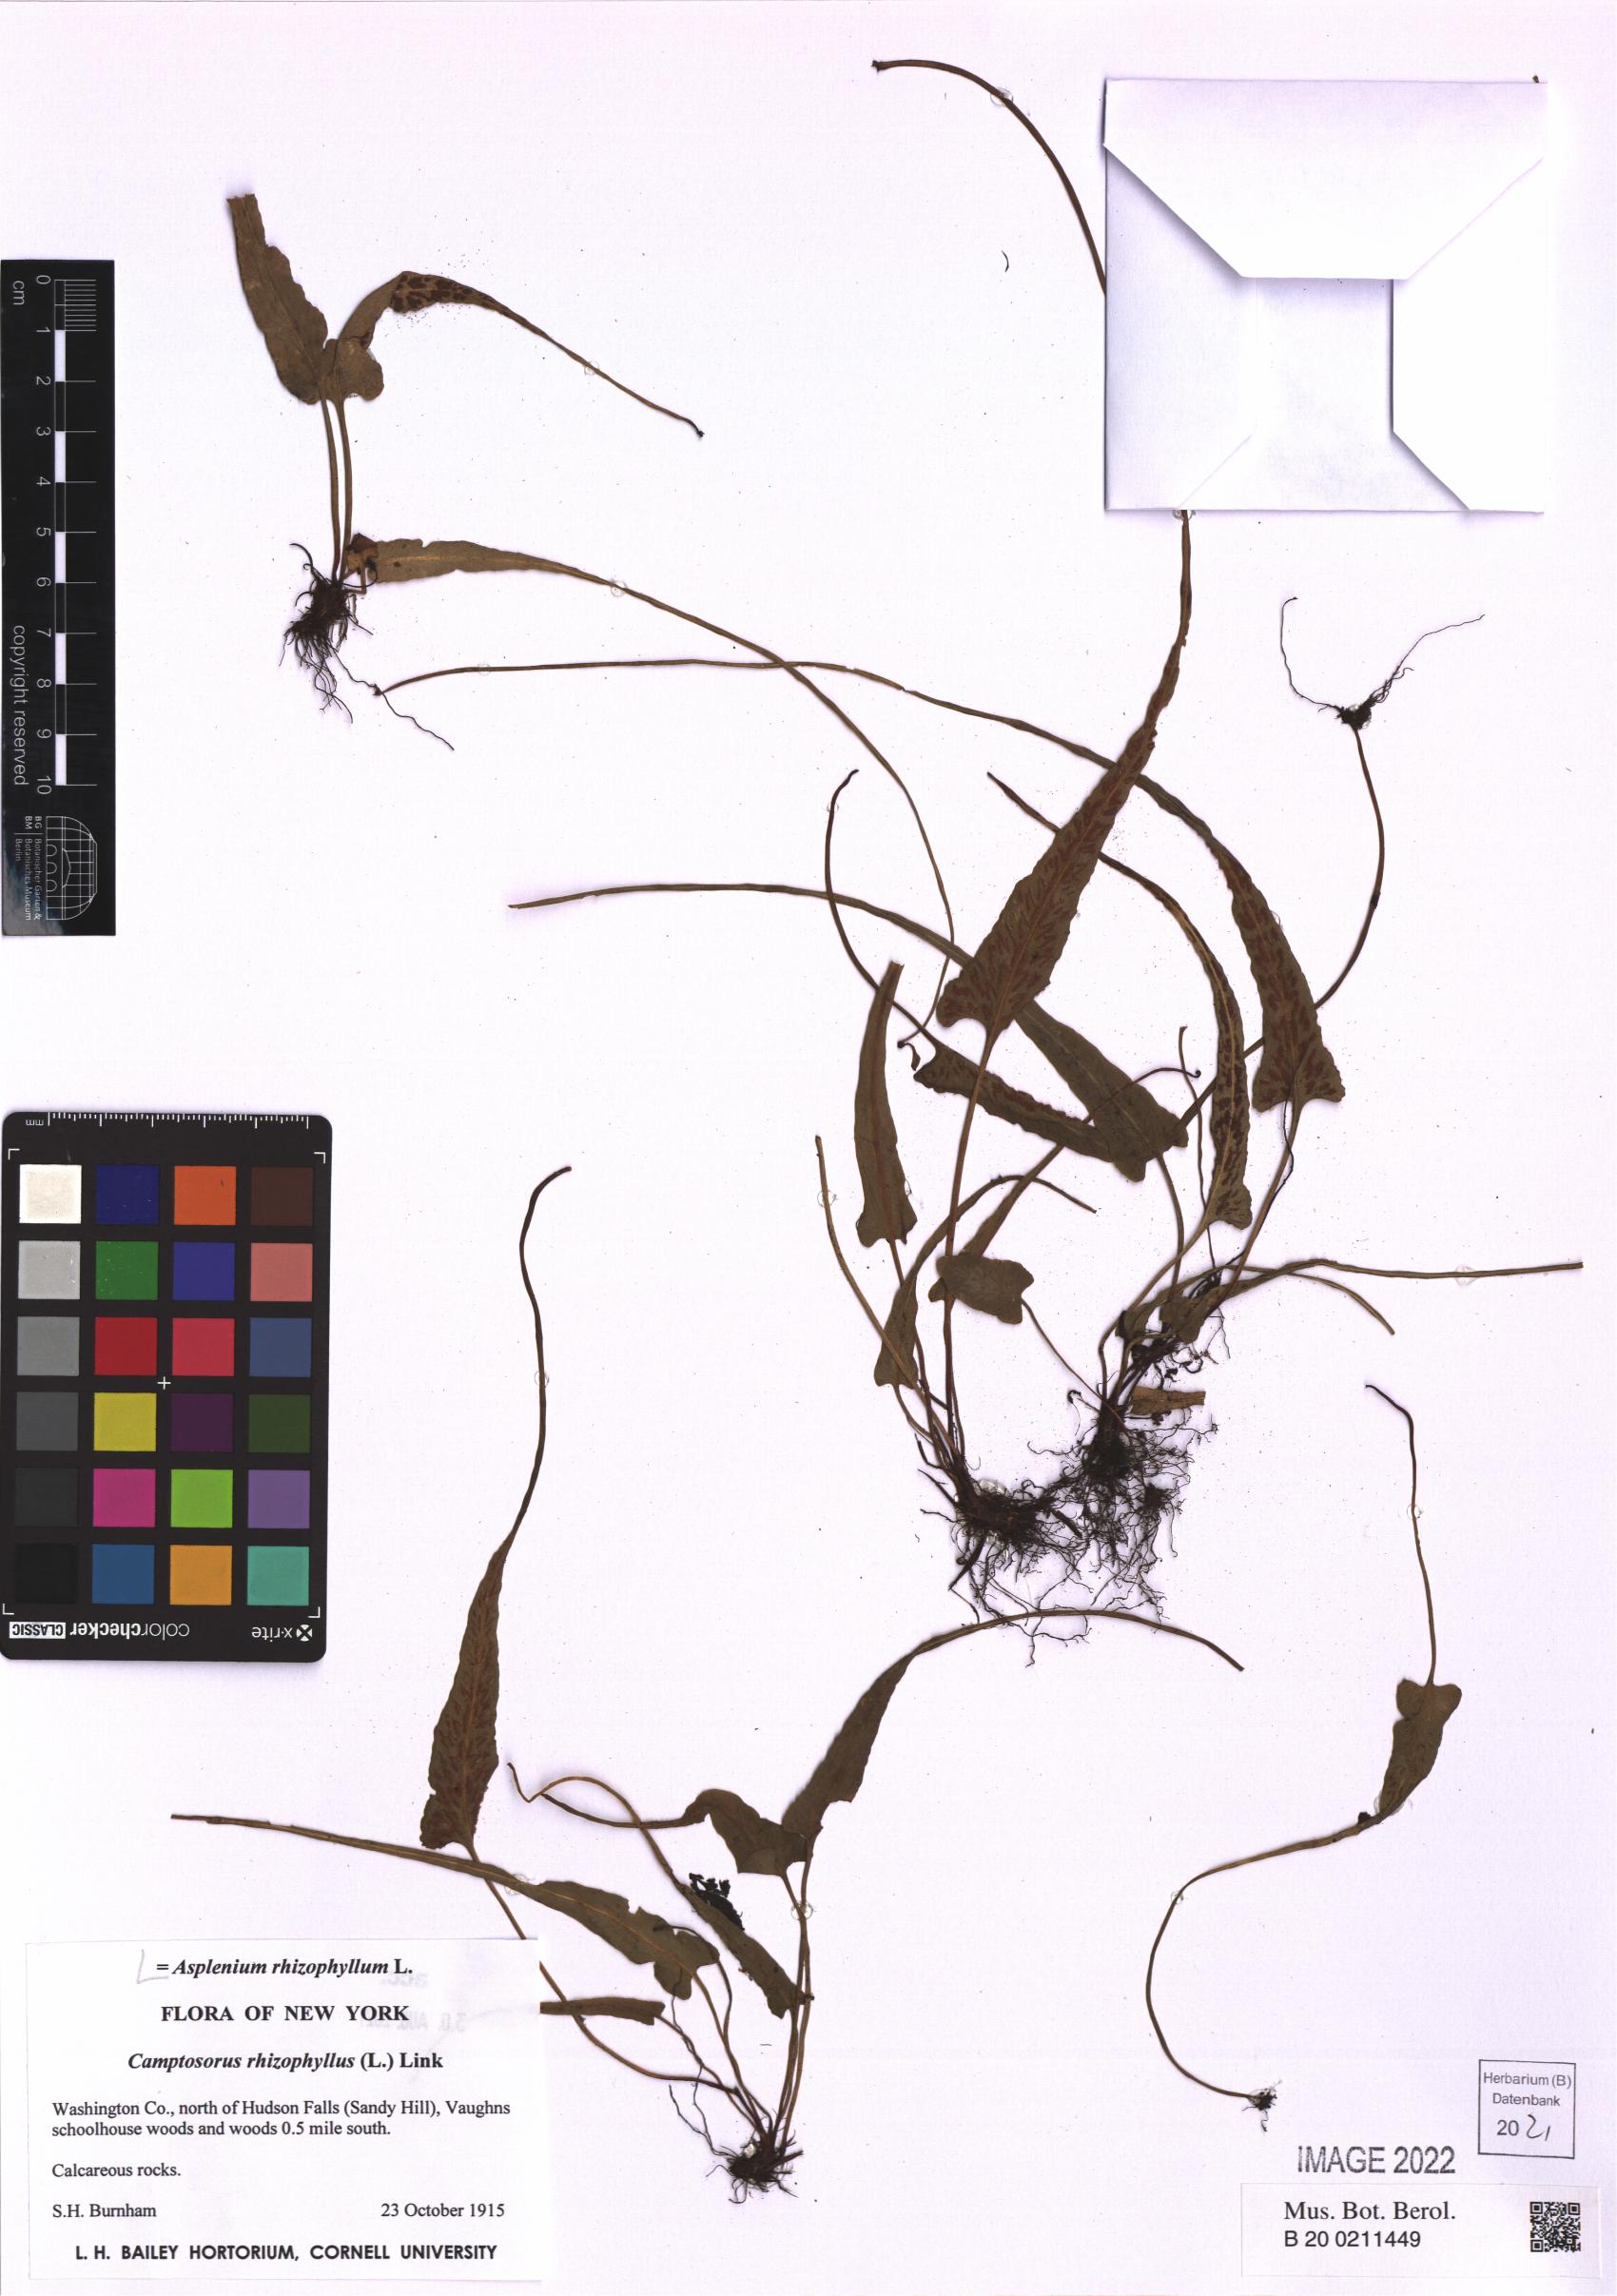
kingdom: Plantae
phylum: Tracheophyta
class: Polypodiopsida
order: Polypodiales
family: Aspleniaceae
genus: Asplenium
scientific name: Asplenium rhizophyllum
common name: Walking fern
